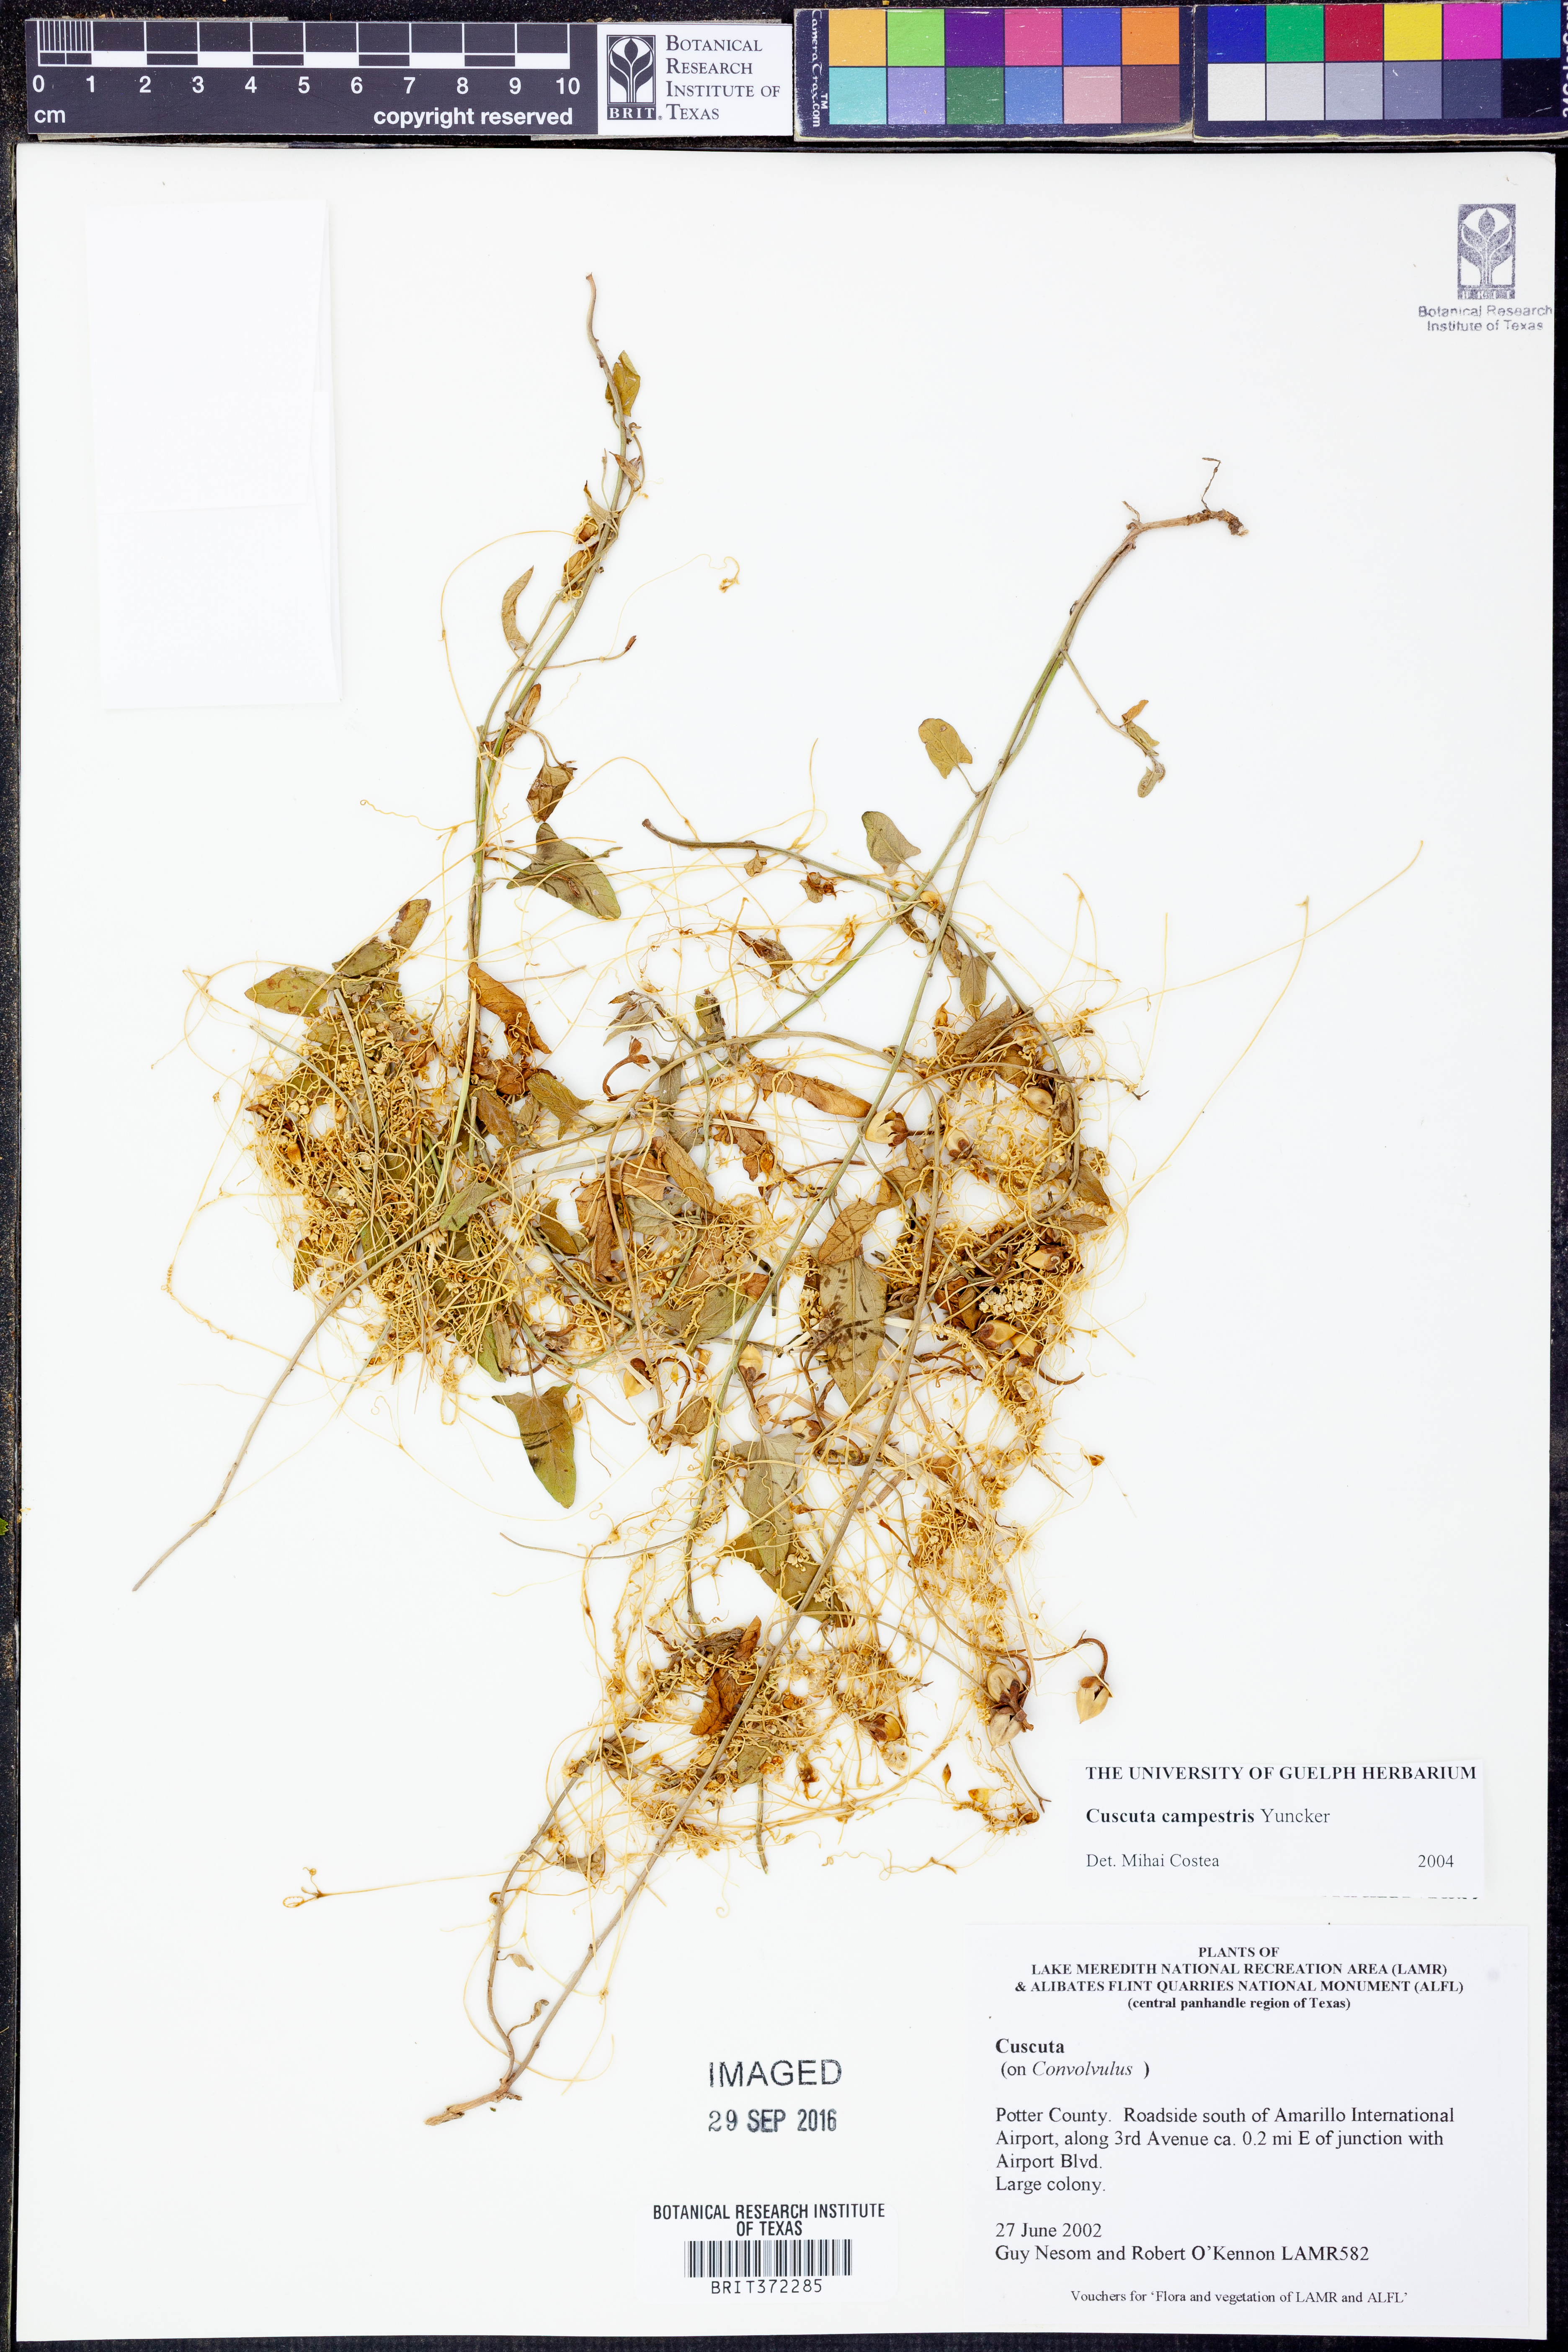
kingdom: Plantae
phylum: Tracheophyta
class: Magnoliopsida
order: Solanales
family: Convolvulaceae
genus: Cuscuta
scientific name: Cuscuta campestris
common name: Yellow dodder
